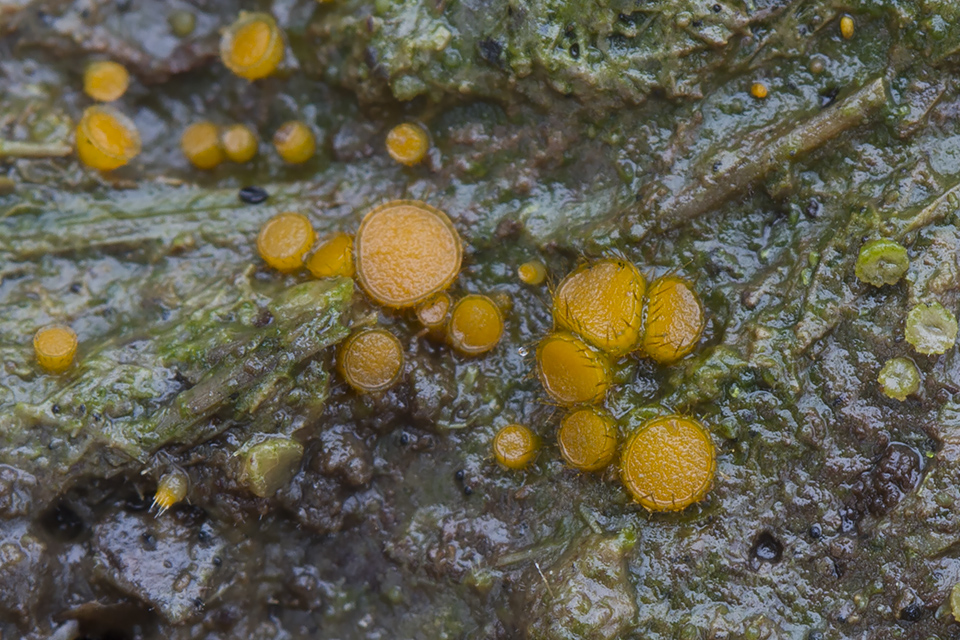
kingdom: Fungi
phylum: Ascomycota
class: Pezizomycetes
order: Pezizales
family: Pyronemataceae
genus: Cheilymenia
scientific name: Cheilymenia fimicola
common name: møg-hårbæger
